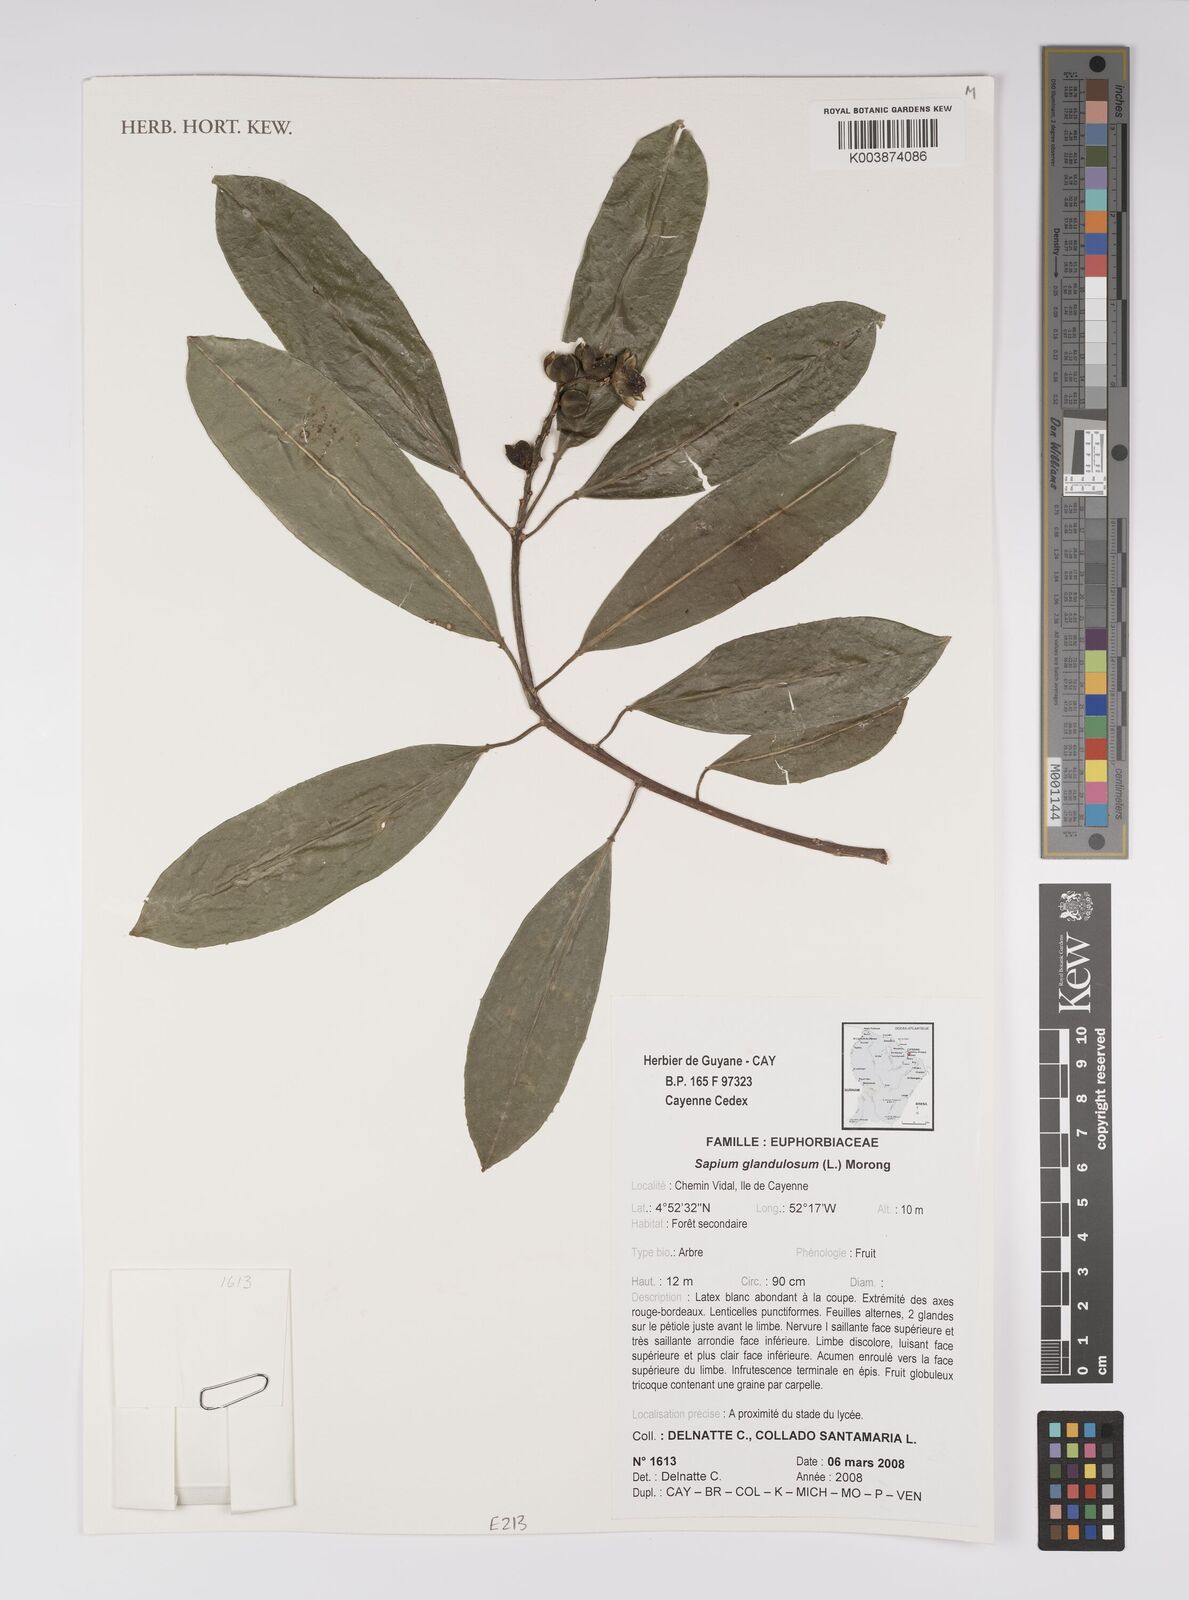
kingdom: Plantae
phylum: Tracheophyta
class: Magnoliopsida
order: Malpighiales
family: Euphorbiaceae
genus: Sapium
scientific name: Sapium glandulosum
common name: Milktree
